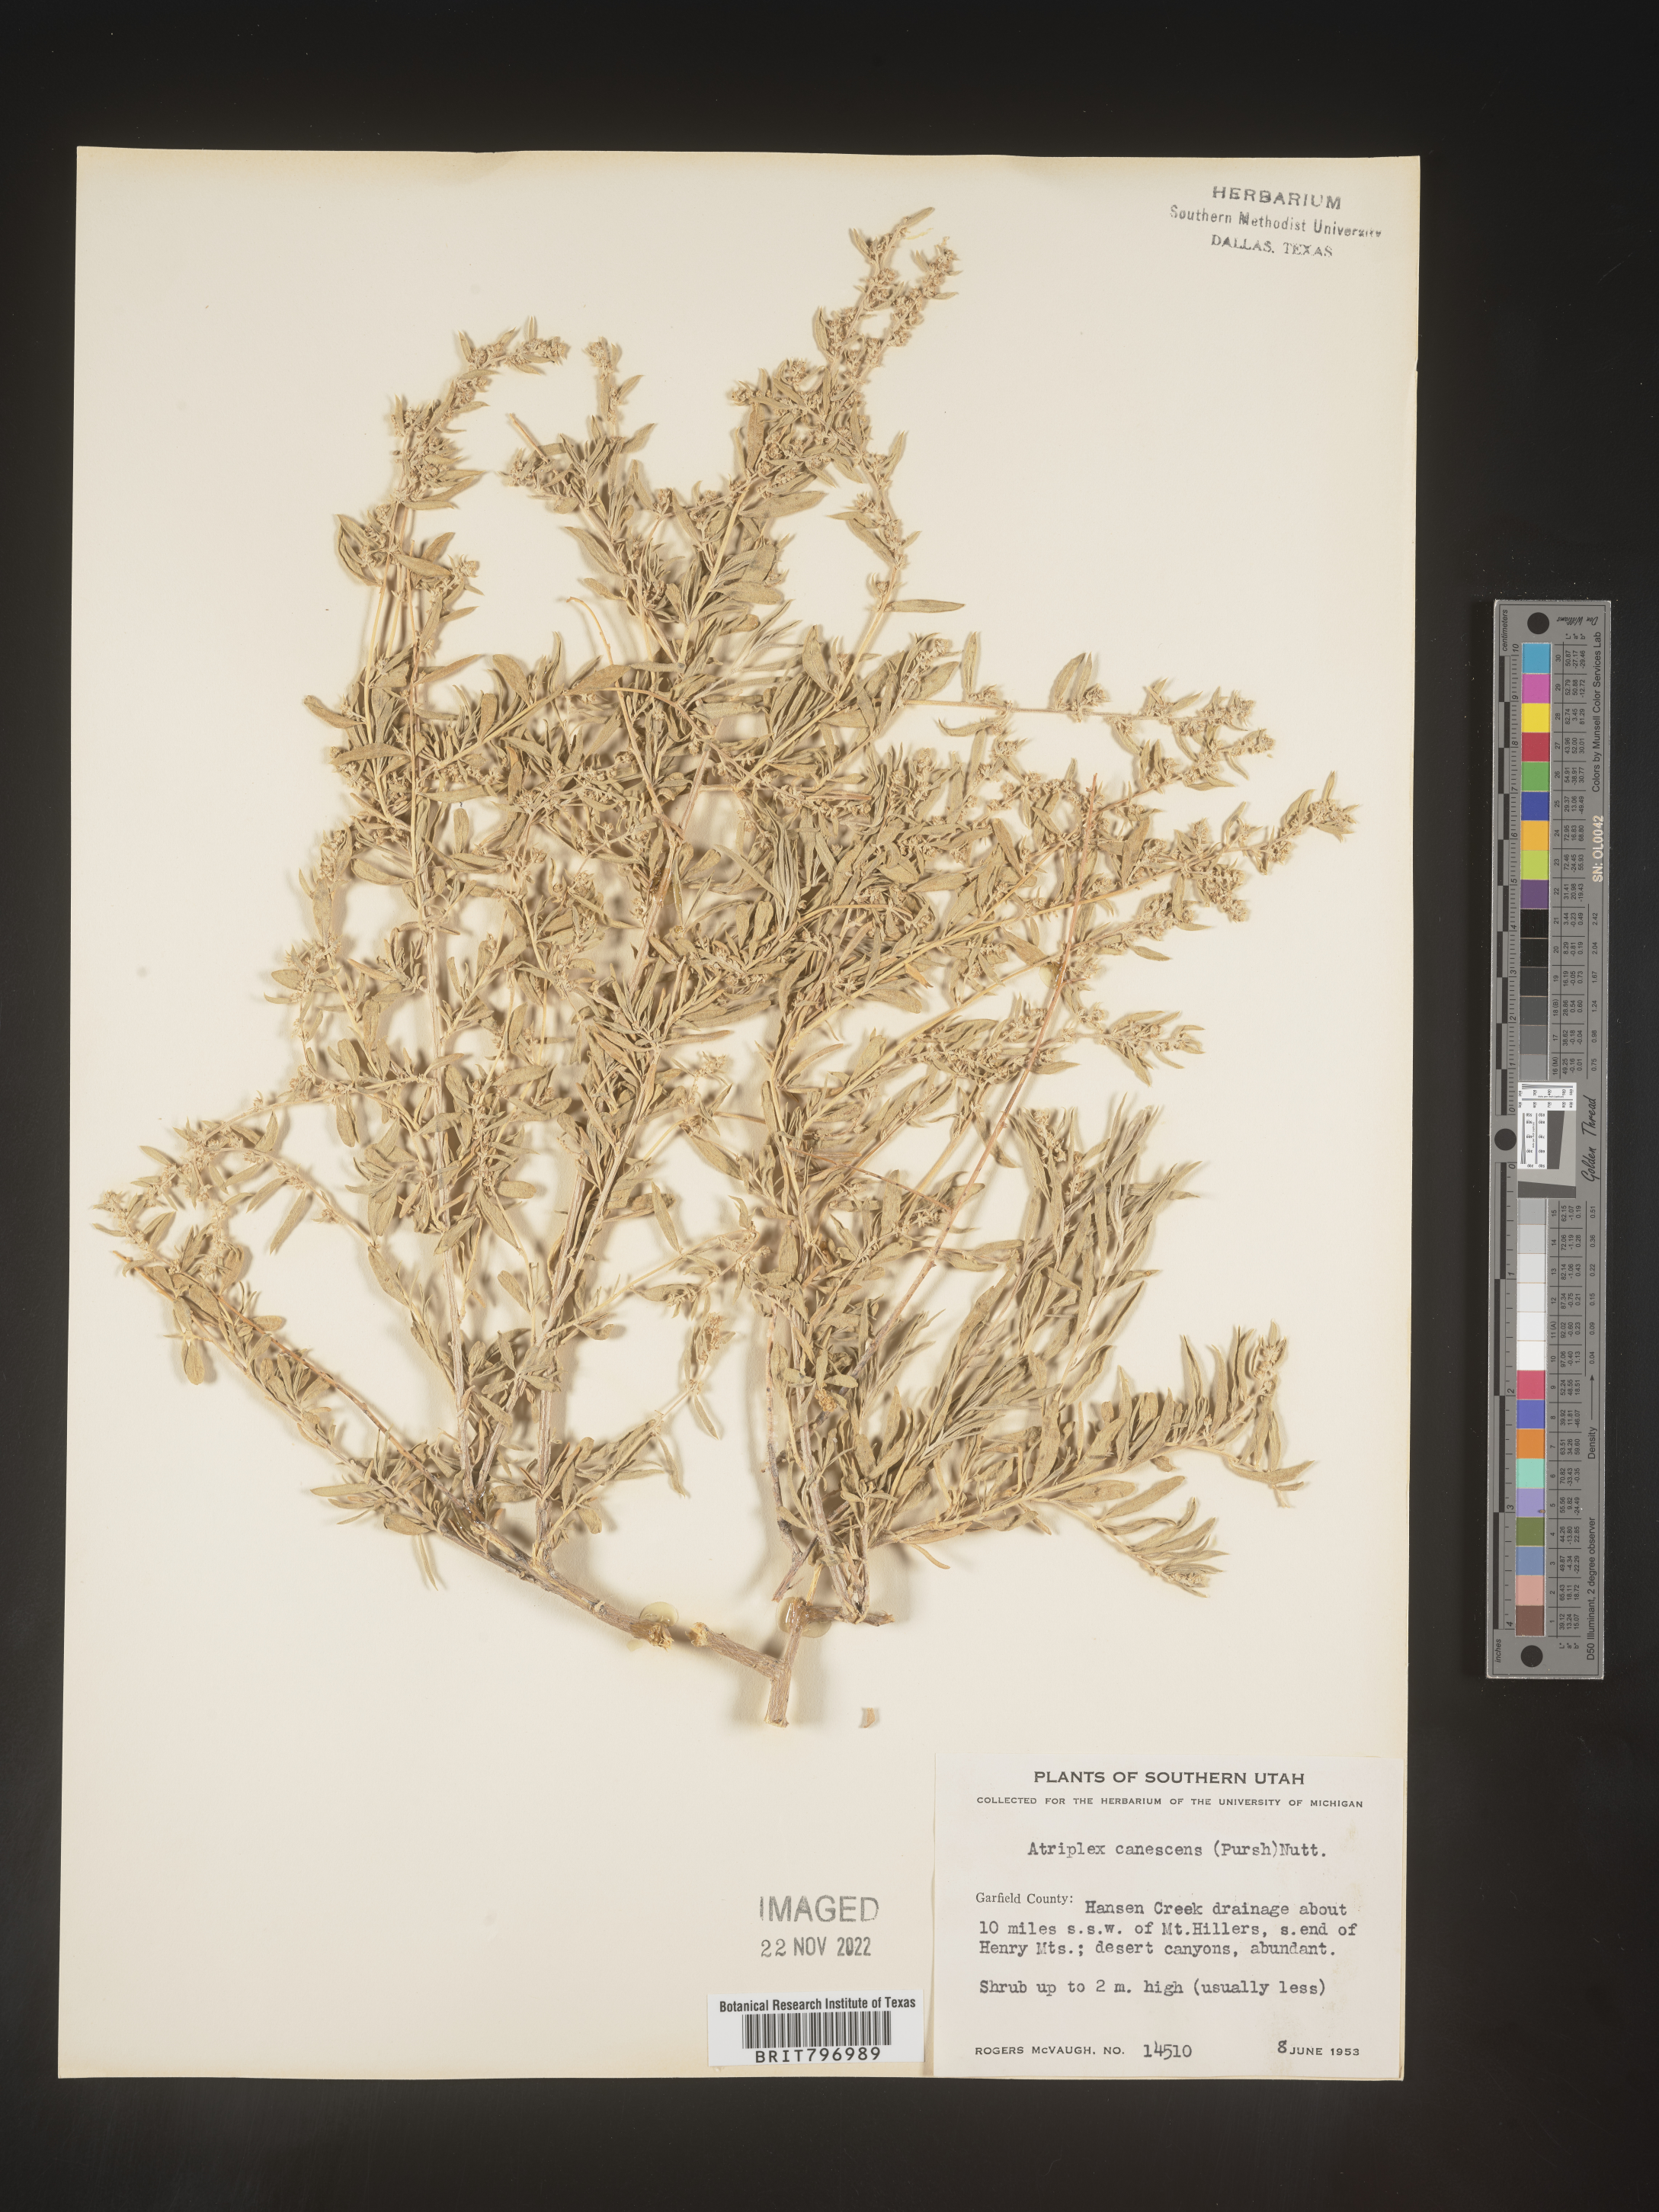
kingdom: Plantae
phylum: Tracheophyta
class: Magnoliopsida
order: Caryophyllales
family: Amaranthaceae
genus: Atriplex
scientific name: Atriplex canescens
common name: Four-wing saltbush
